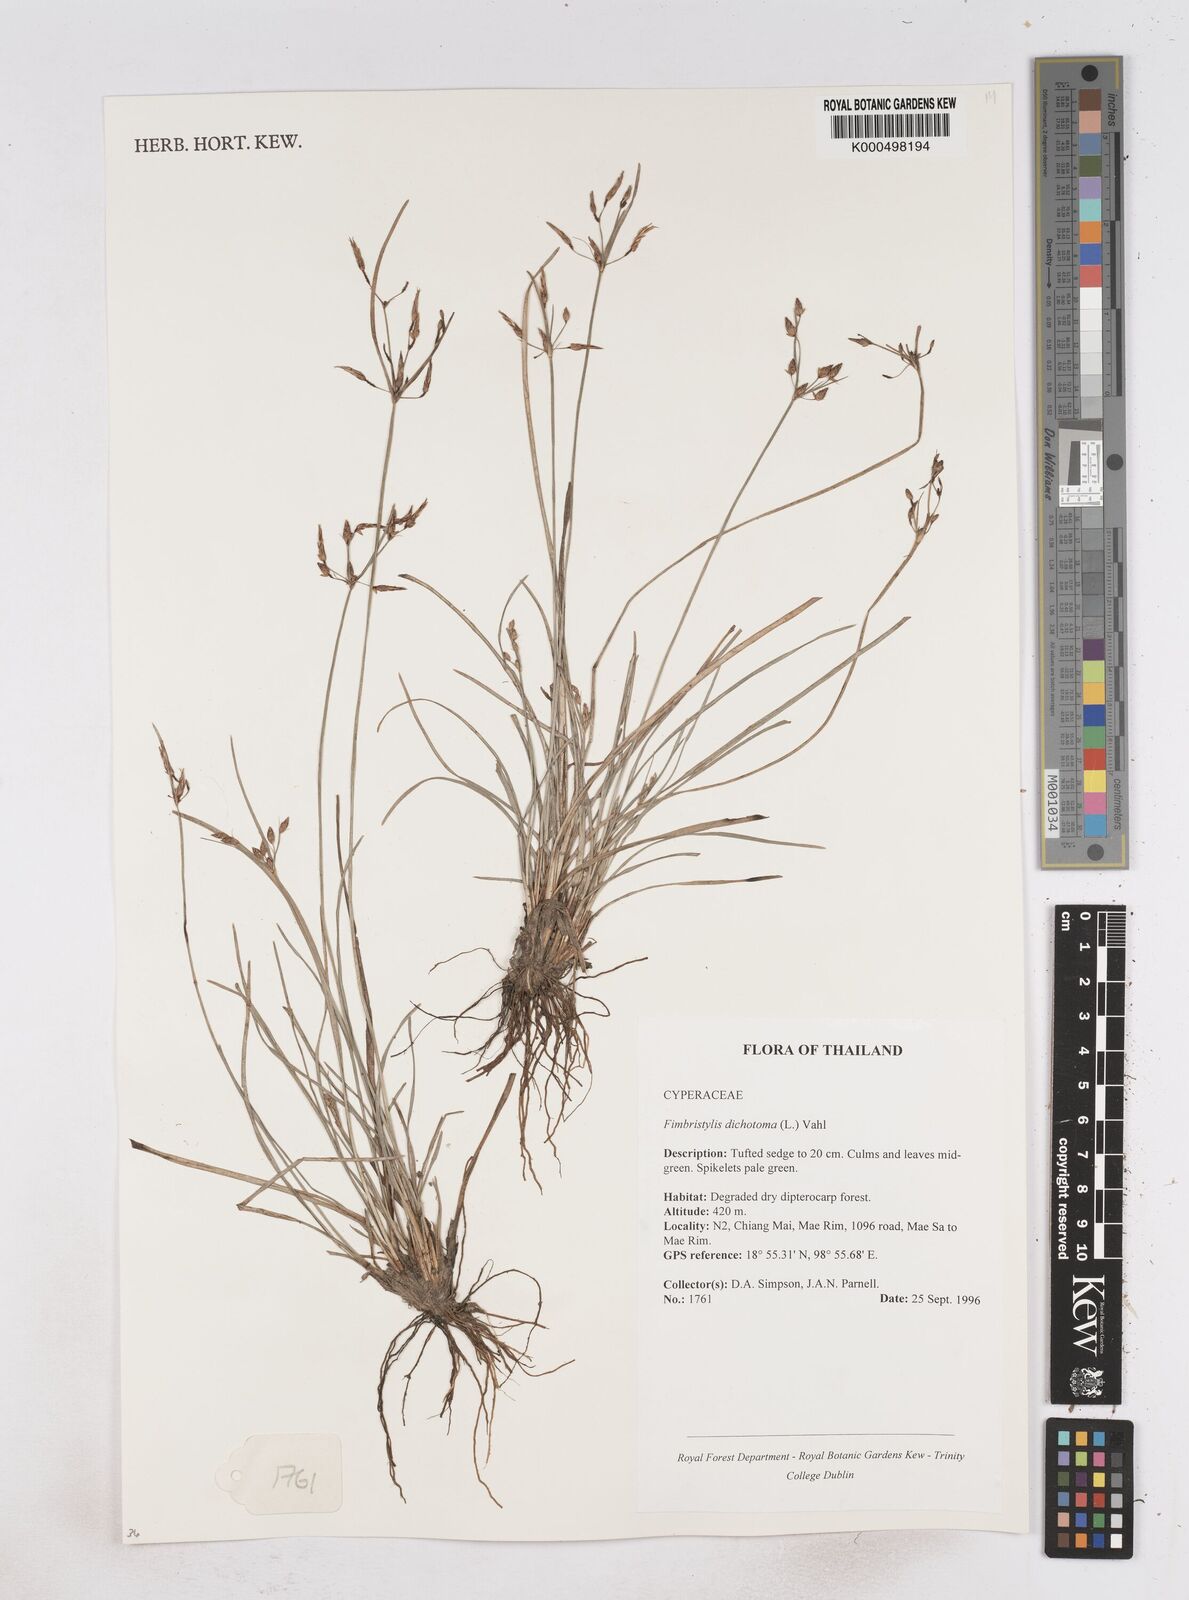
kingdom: Plantae
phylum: Tracheophyta
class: Liliopsida
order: Poales
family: Cyperaceae
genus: Fimbristylis
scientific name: Fimbristylis dichotoma
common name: Forked fimbry
